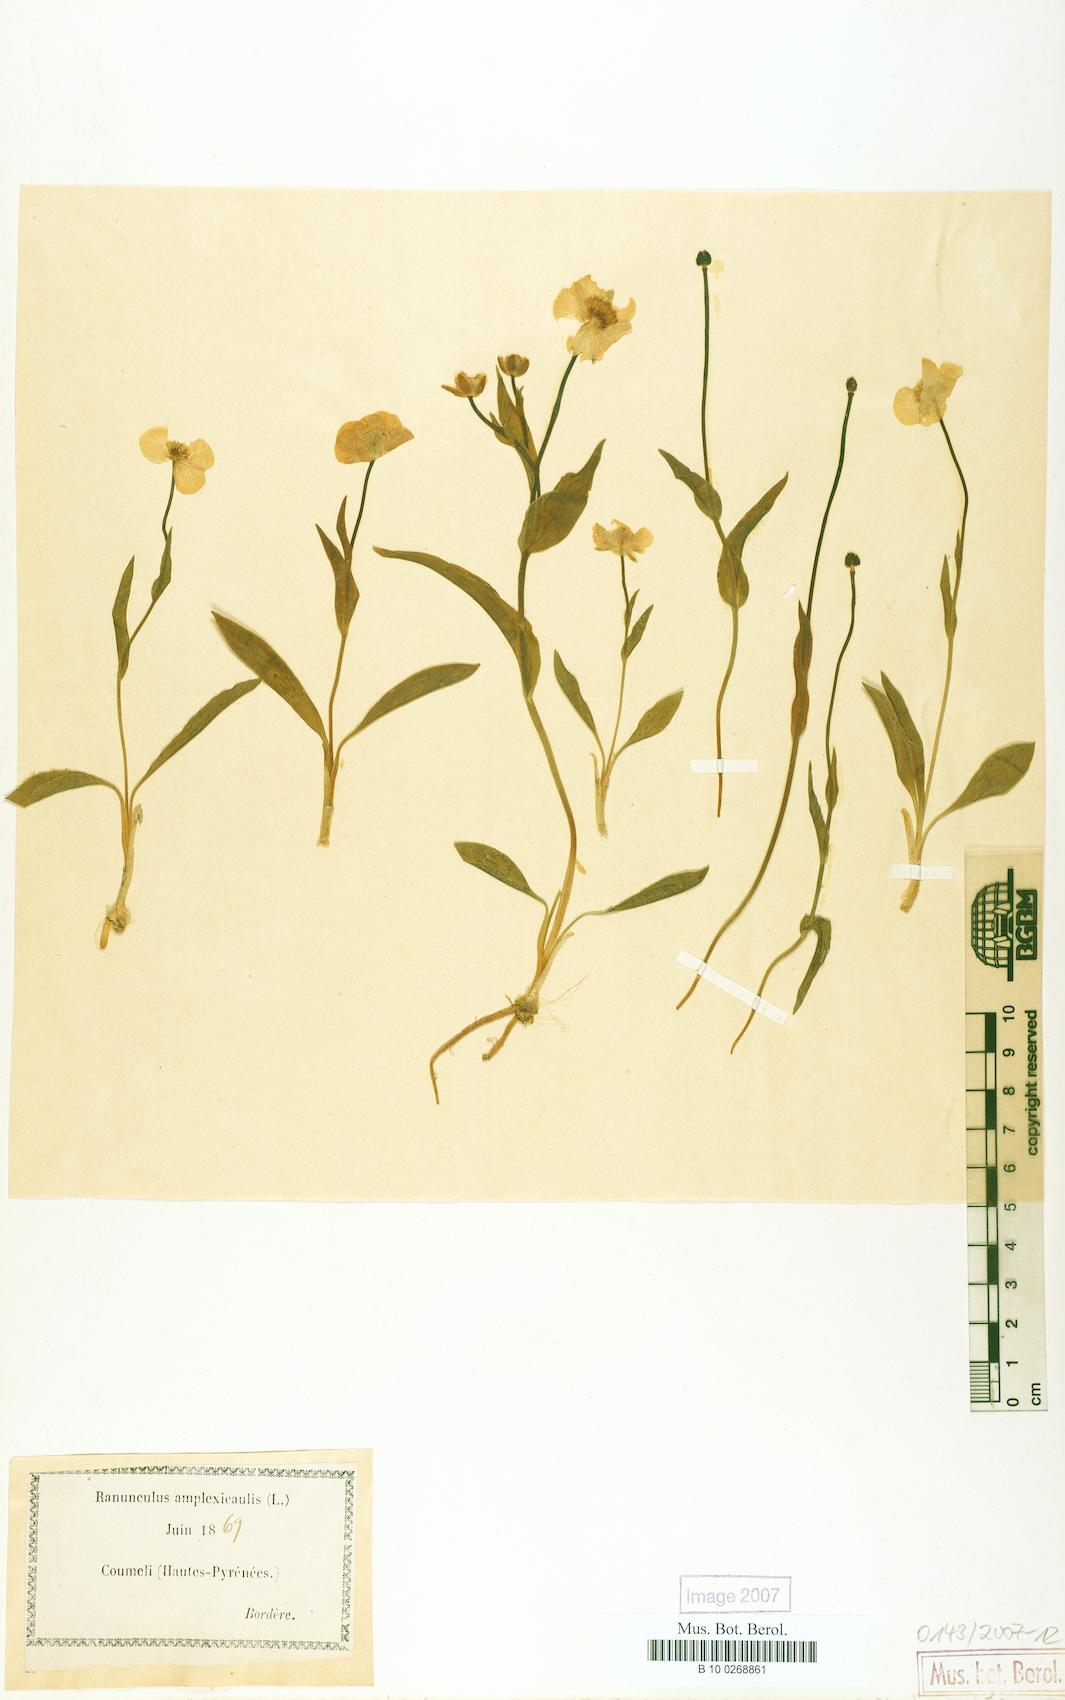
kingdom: Plantae
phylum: Tracheophyta
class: Magnoliopsida
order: Ranunculales
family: Ranunculaceae
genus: Ranunculus
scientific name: Ranunculus amplexicaulis
